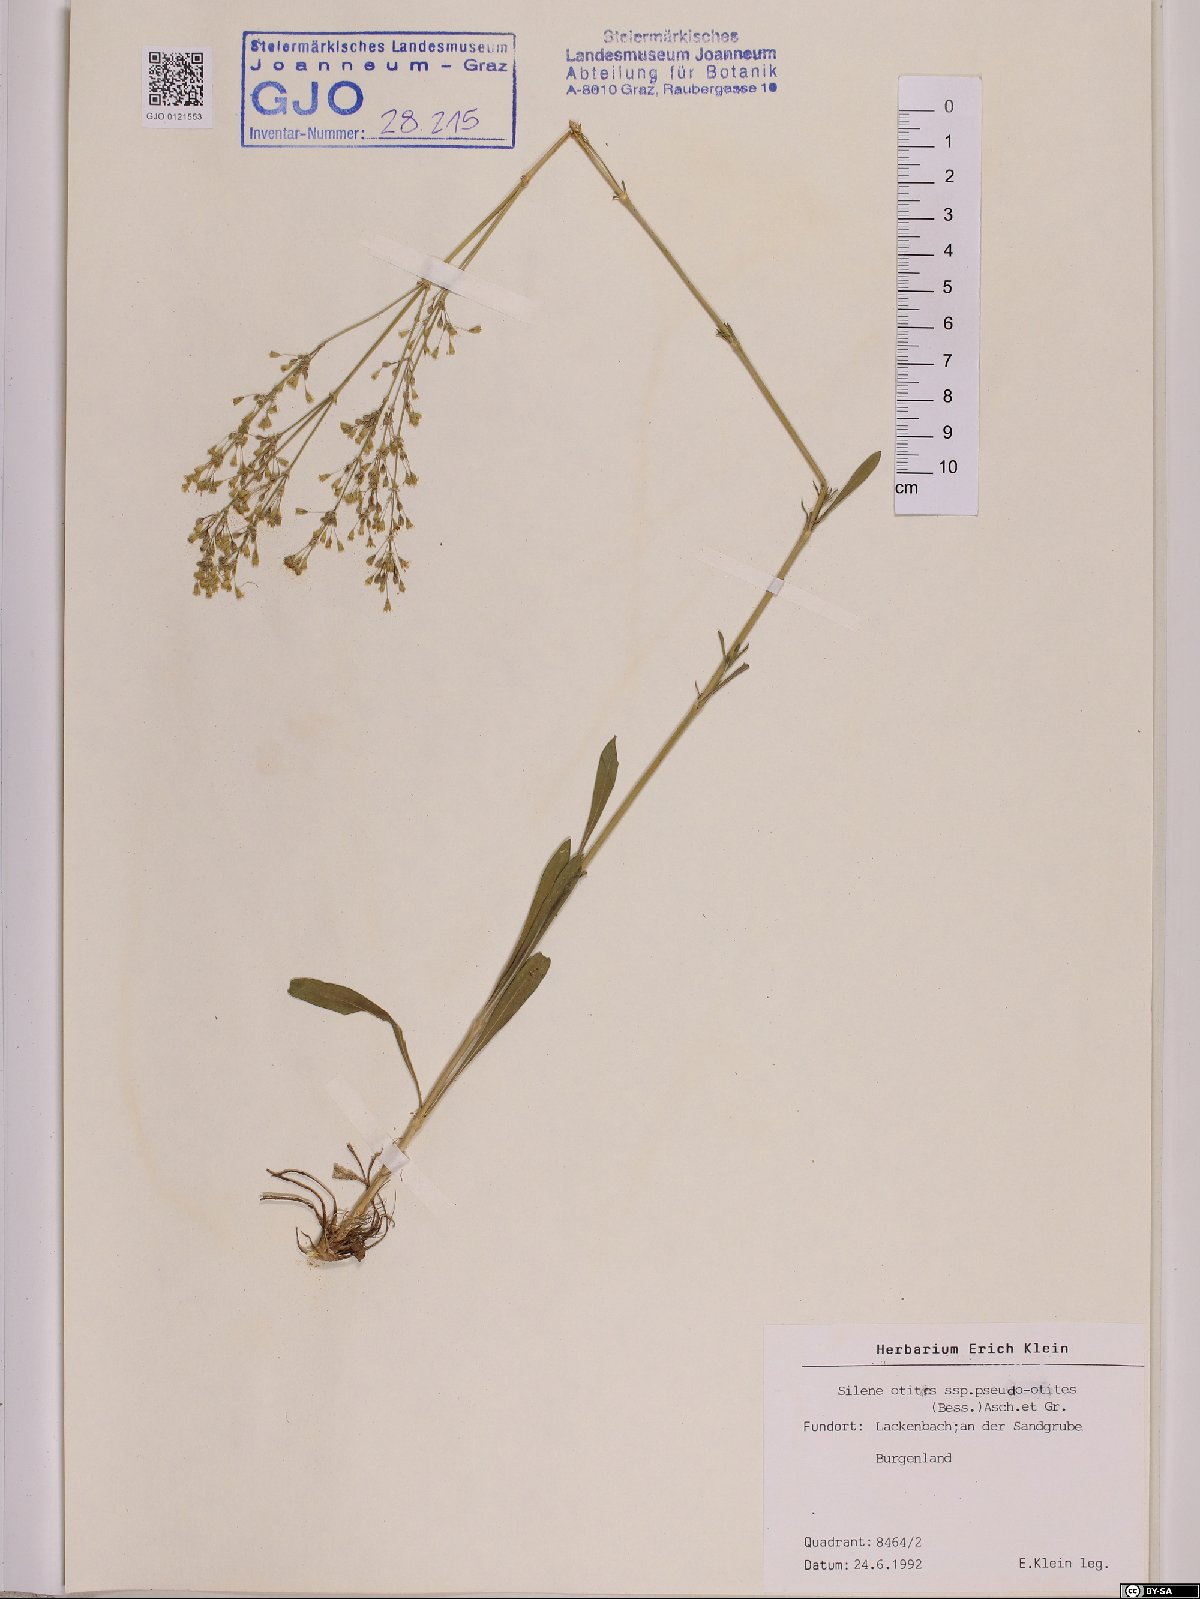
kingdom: Plantae
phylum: Tracheophyta
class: Magnoliopsida
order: Caryophyllales
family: Caryophyllaceae
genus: Silene
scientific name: Silene pseudotites
